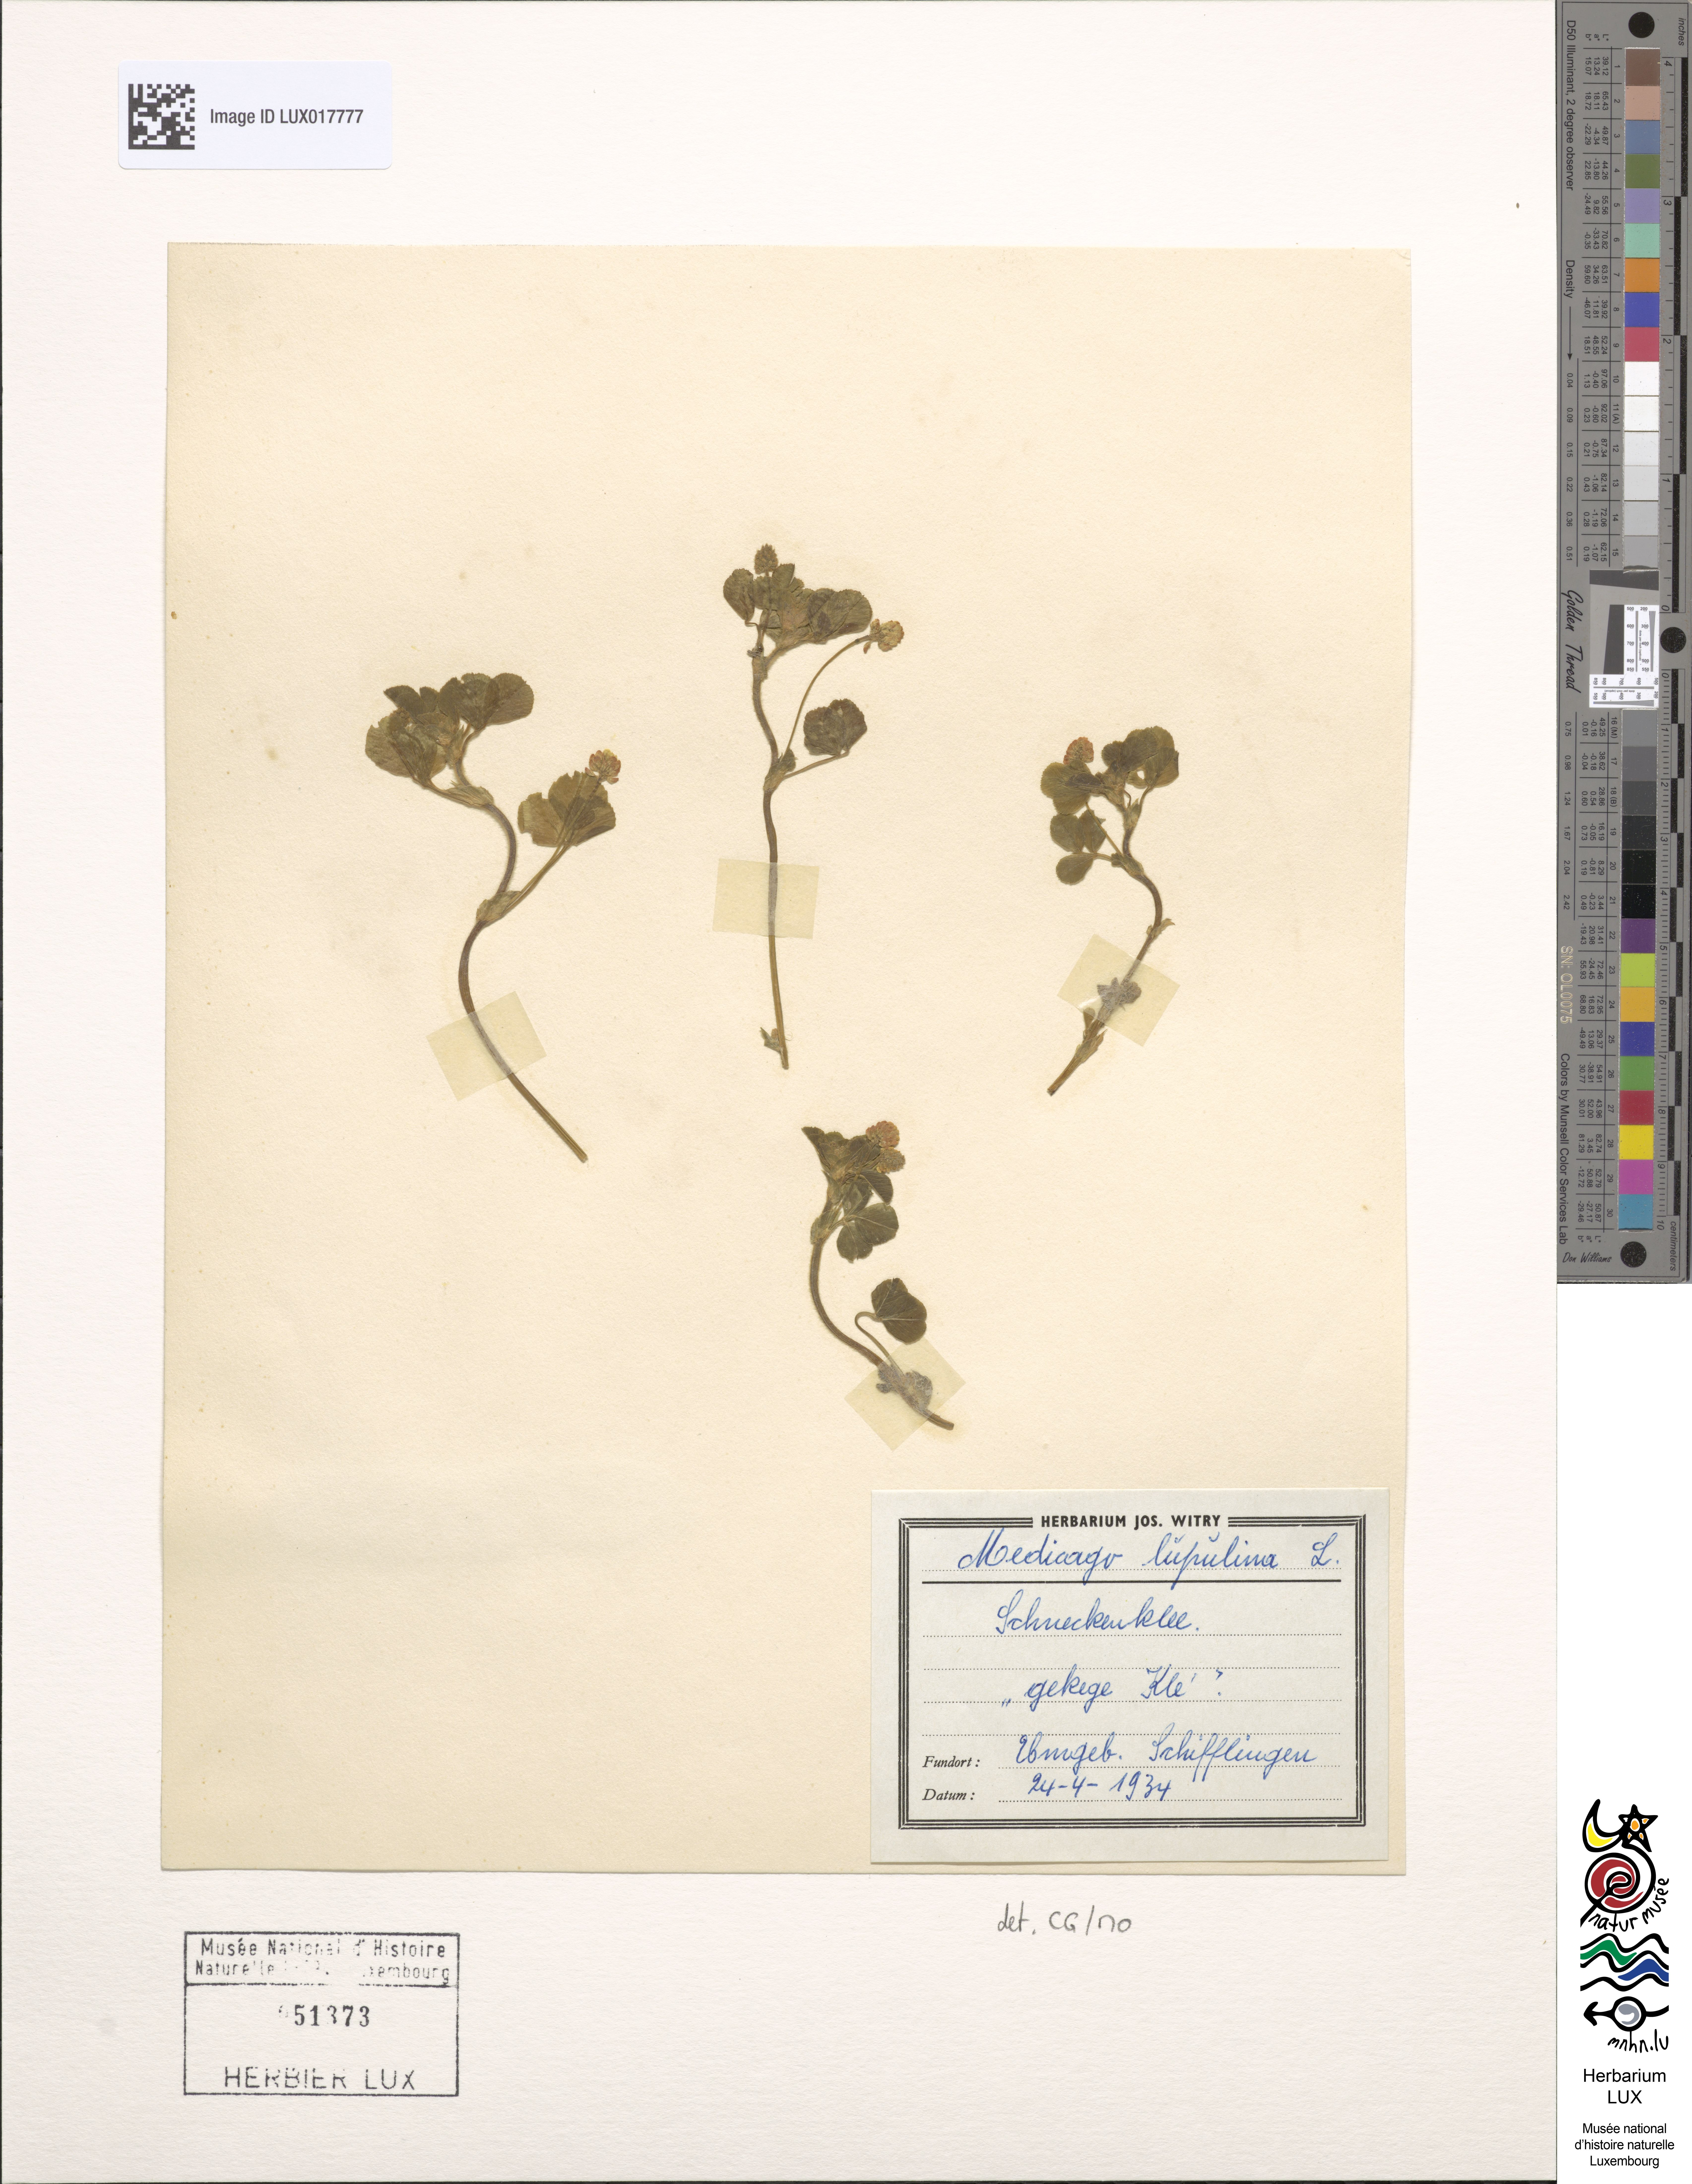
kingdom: Plantae
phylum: Tracheophyta
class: Magnoliopsida
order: Fabales
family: Fabaceae
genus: Medicago
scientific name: Medicago lupulina
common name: Black medick
